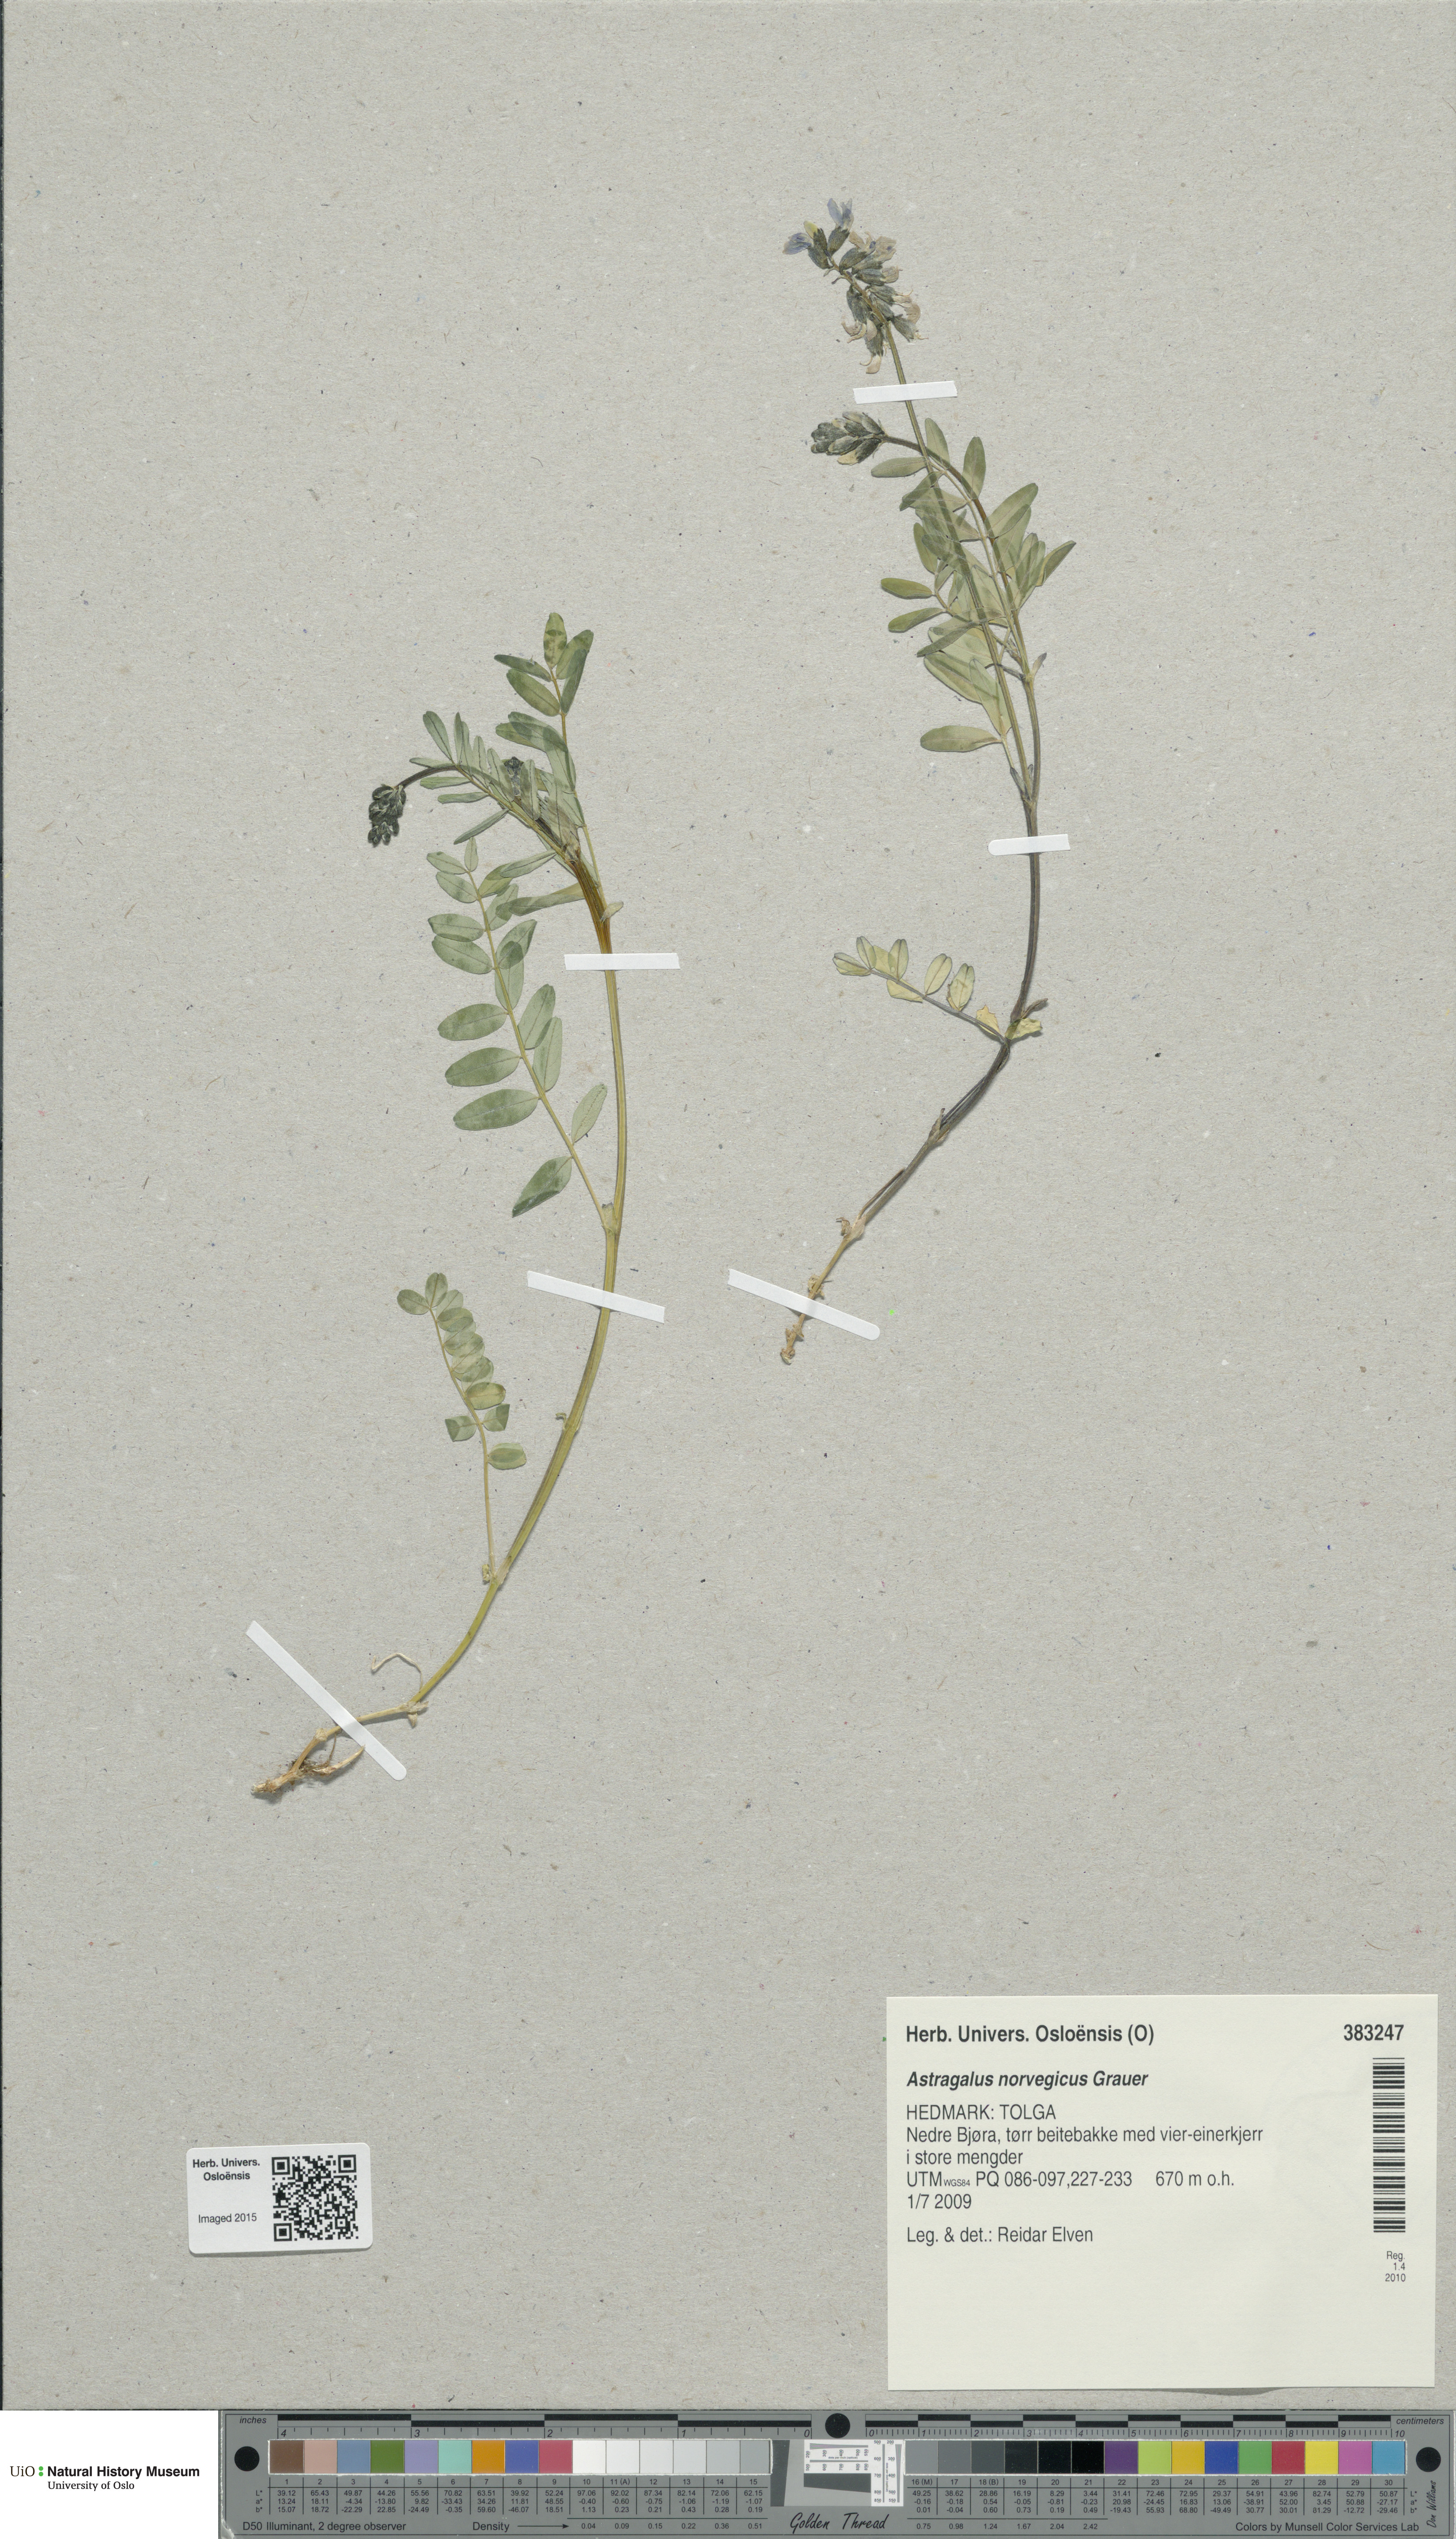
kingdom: Plantae
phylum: Tracheophyta
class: Magnoliopsida
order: Fabales
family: Fabaceae
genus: Astragalus
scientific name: Astragalus norvegicus
